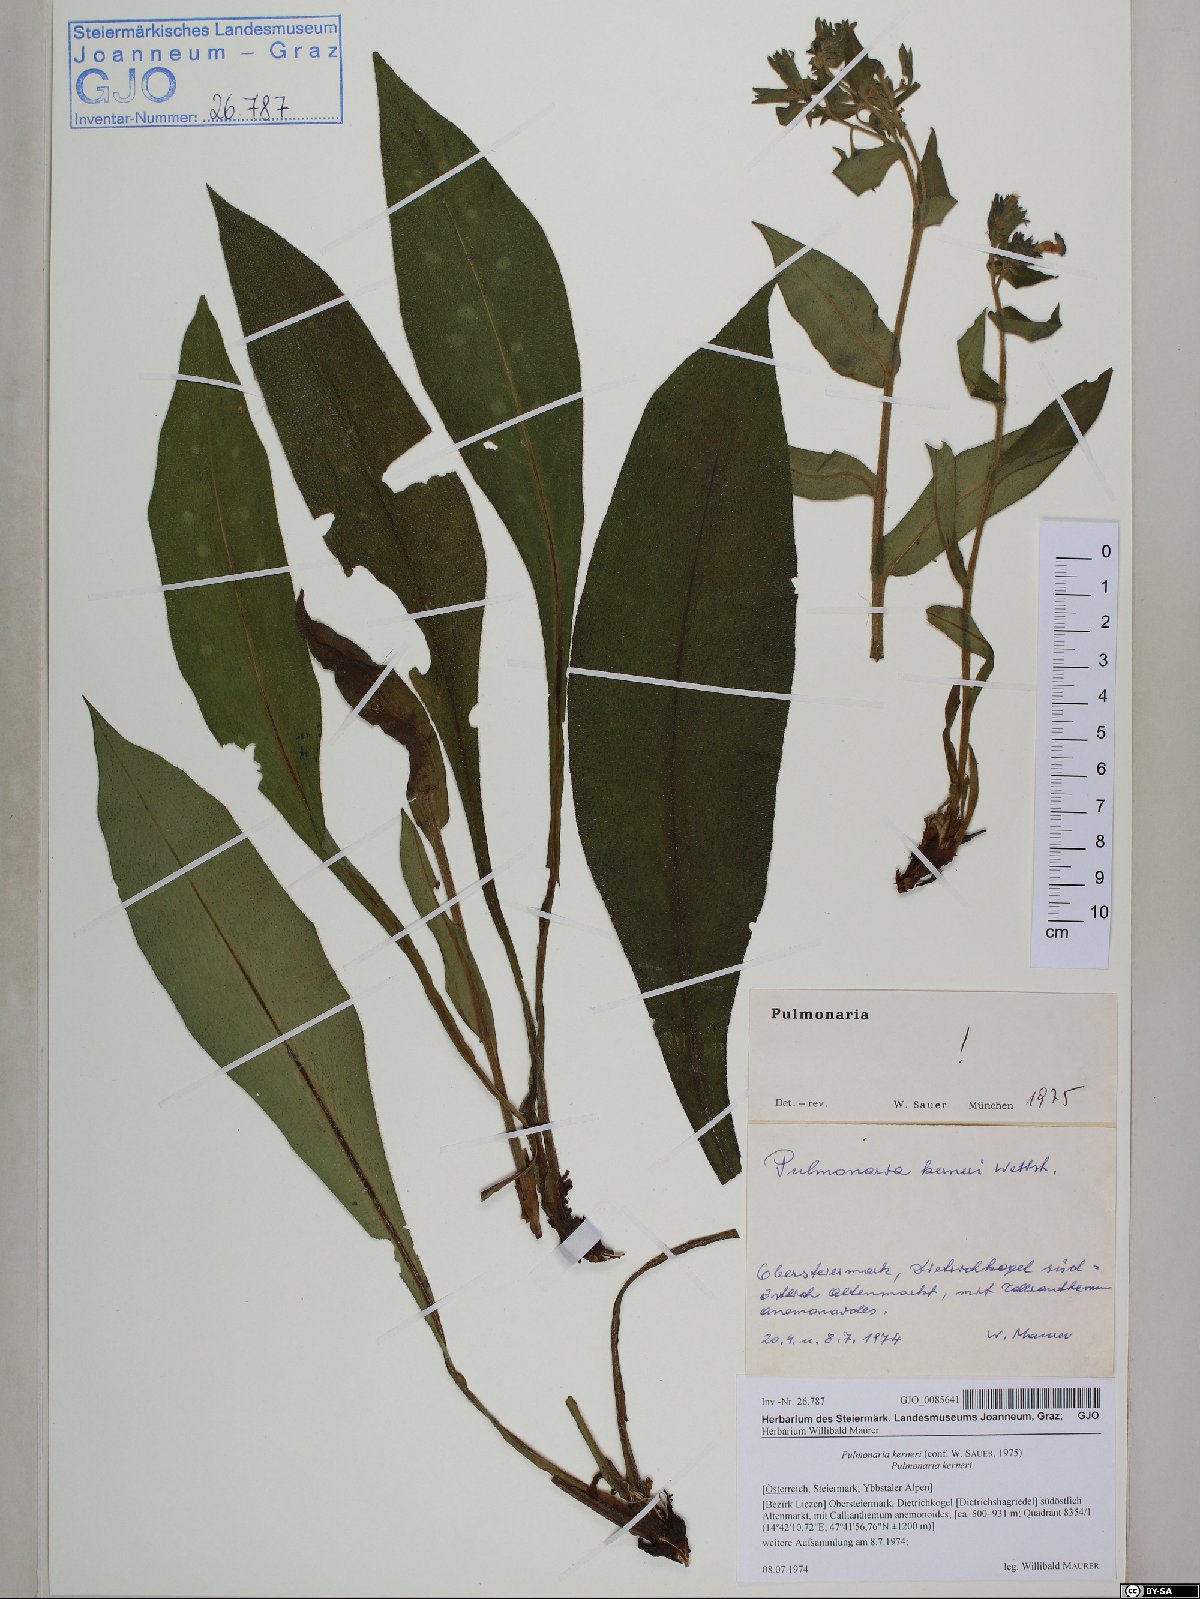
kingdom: Plantae
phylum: Tracheophyta
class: Magnoliopsida
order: Boraginales
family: Boraginaceae
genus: Pulmonaria
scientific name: Pulmonaria kerneri
